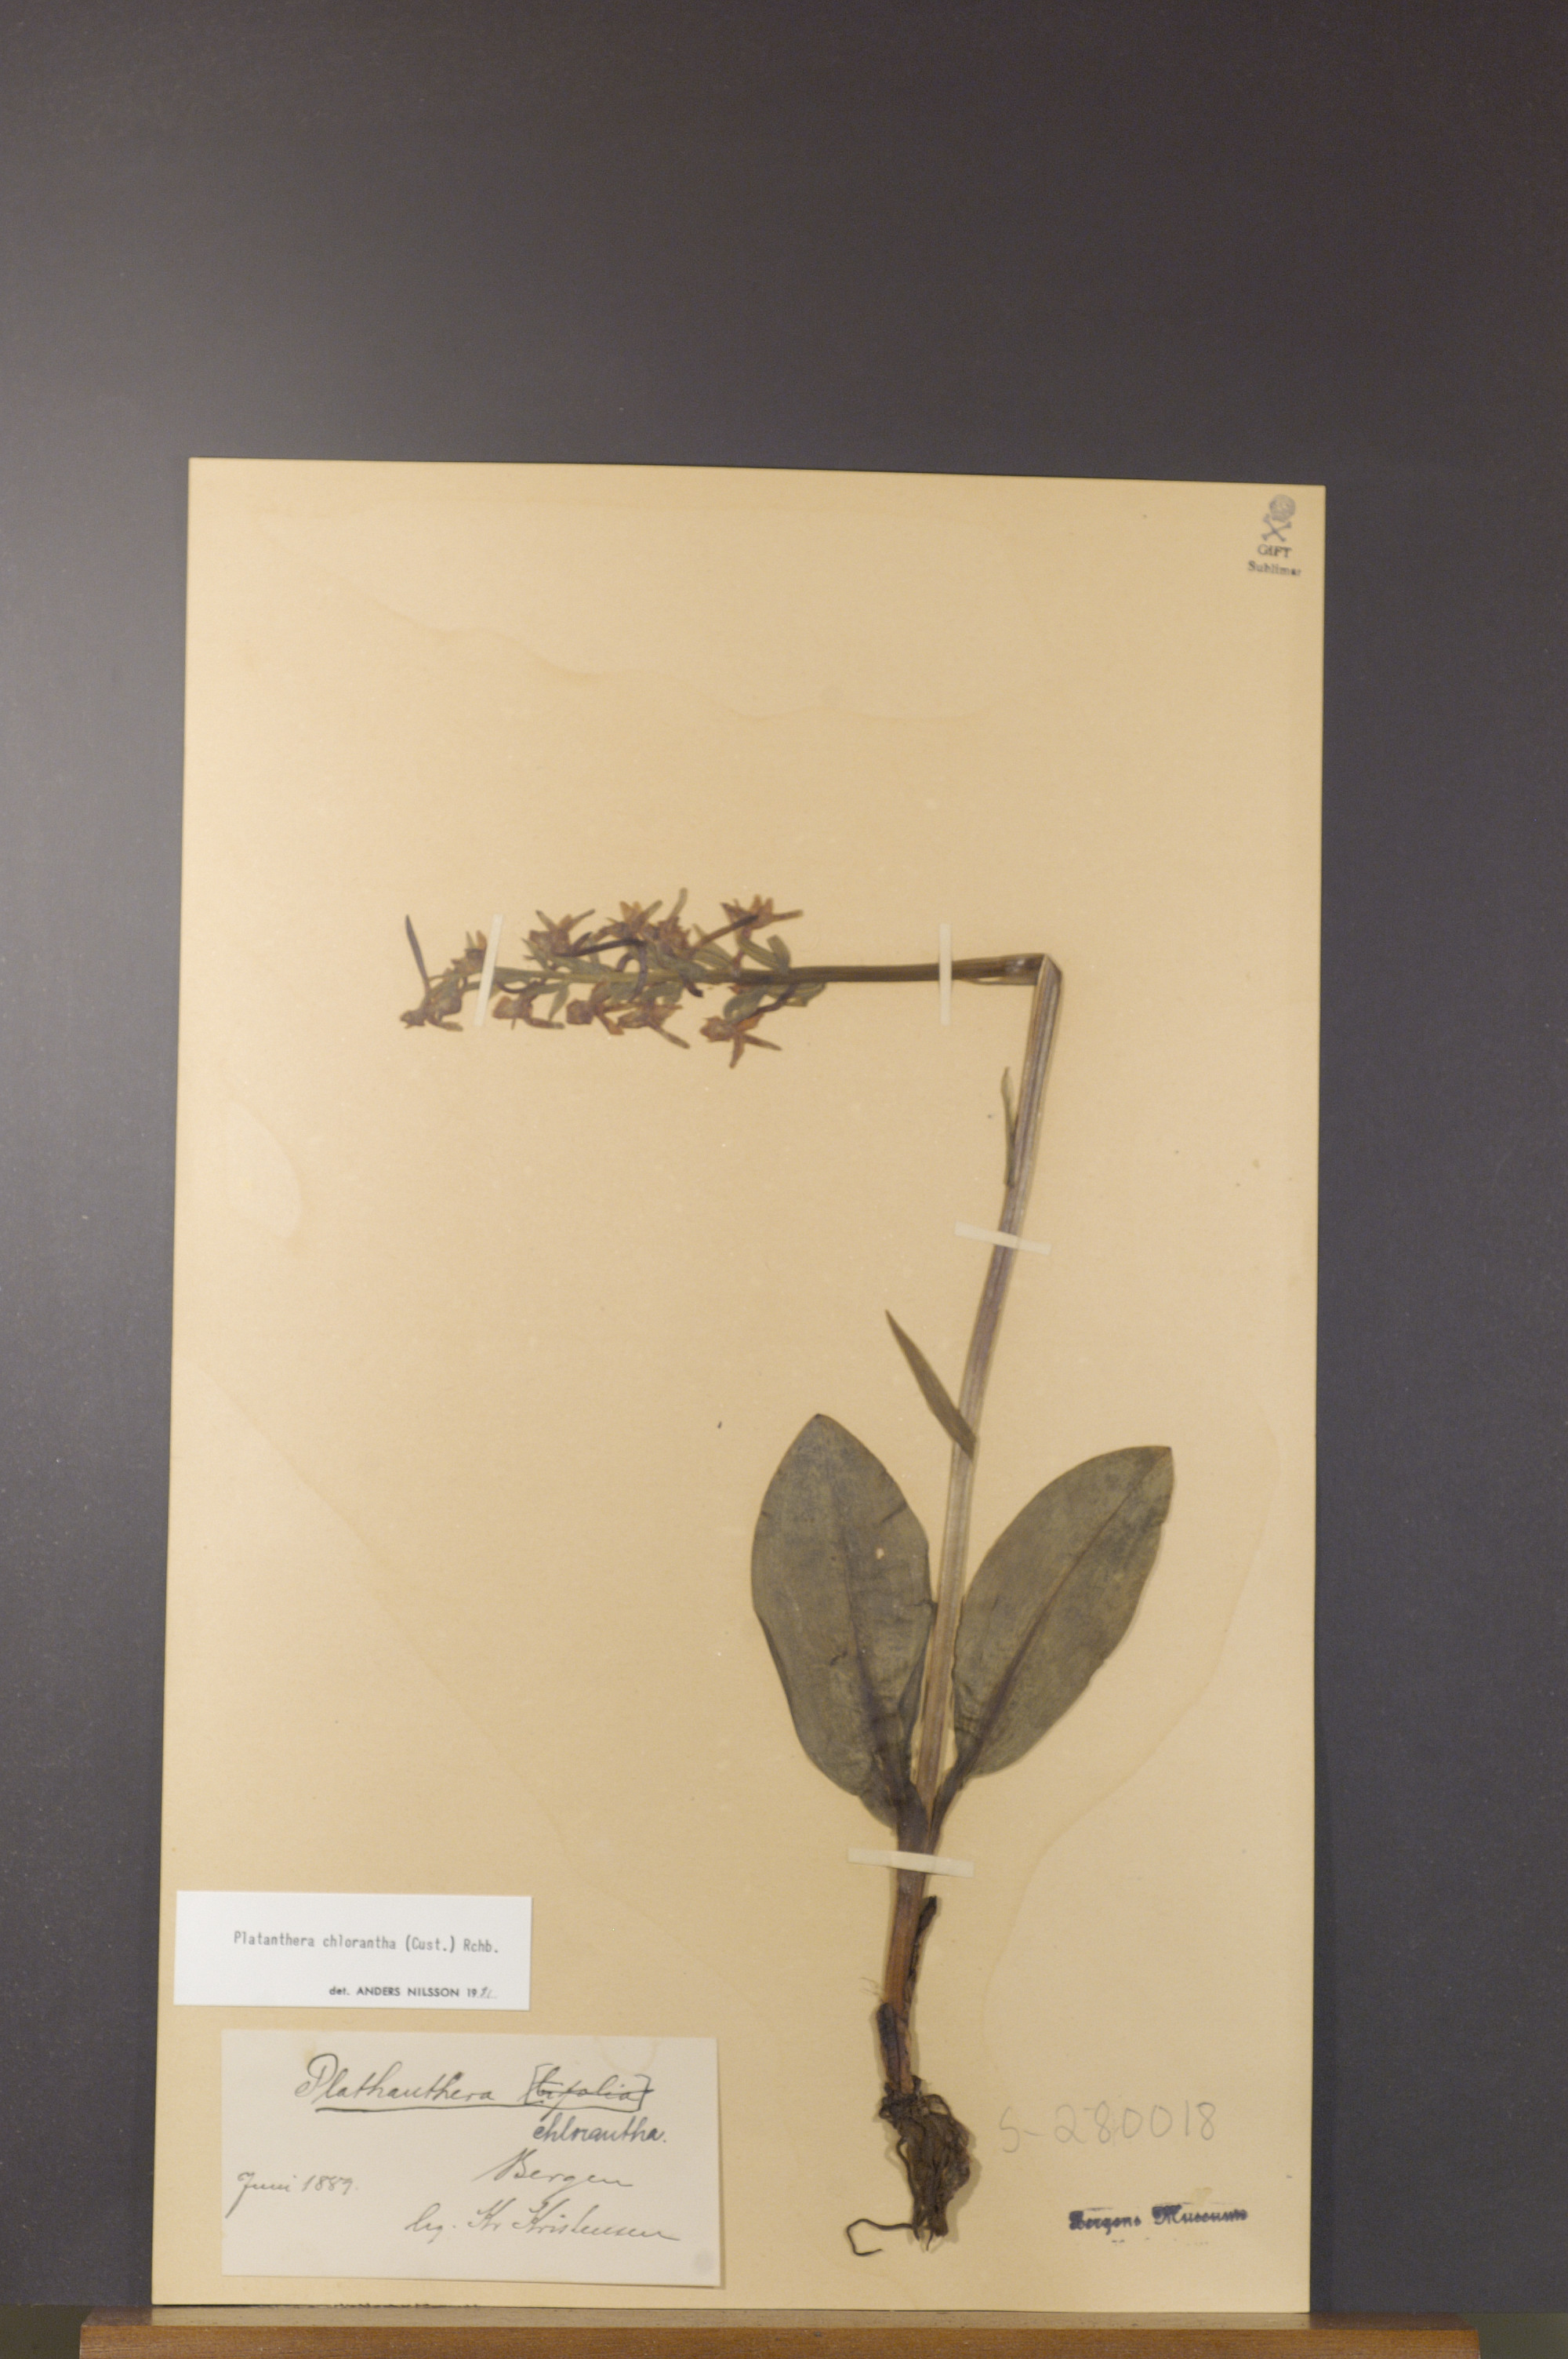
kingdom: Plantae
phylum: Tracheophyta
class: Liliopsida
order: Asparagales
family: Orchidaceae
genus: Platanthera
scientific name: Platanthera chlorantha
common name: Greater butterfly-orchid
